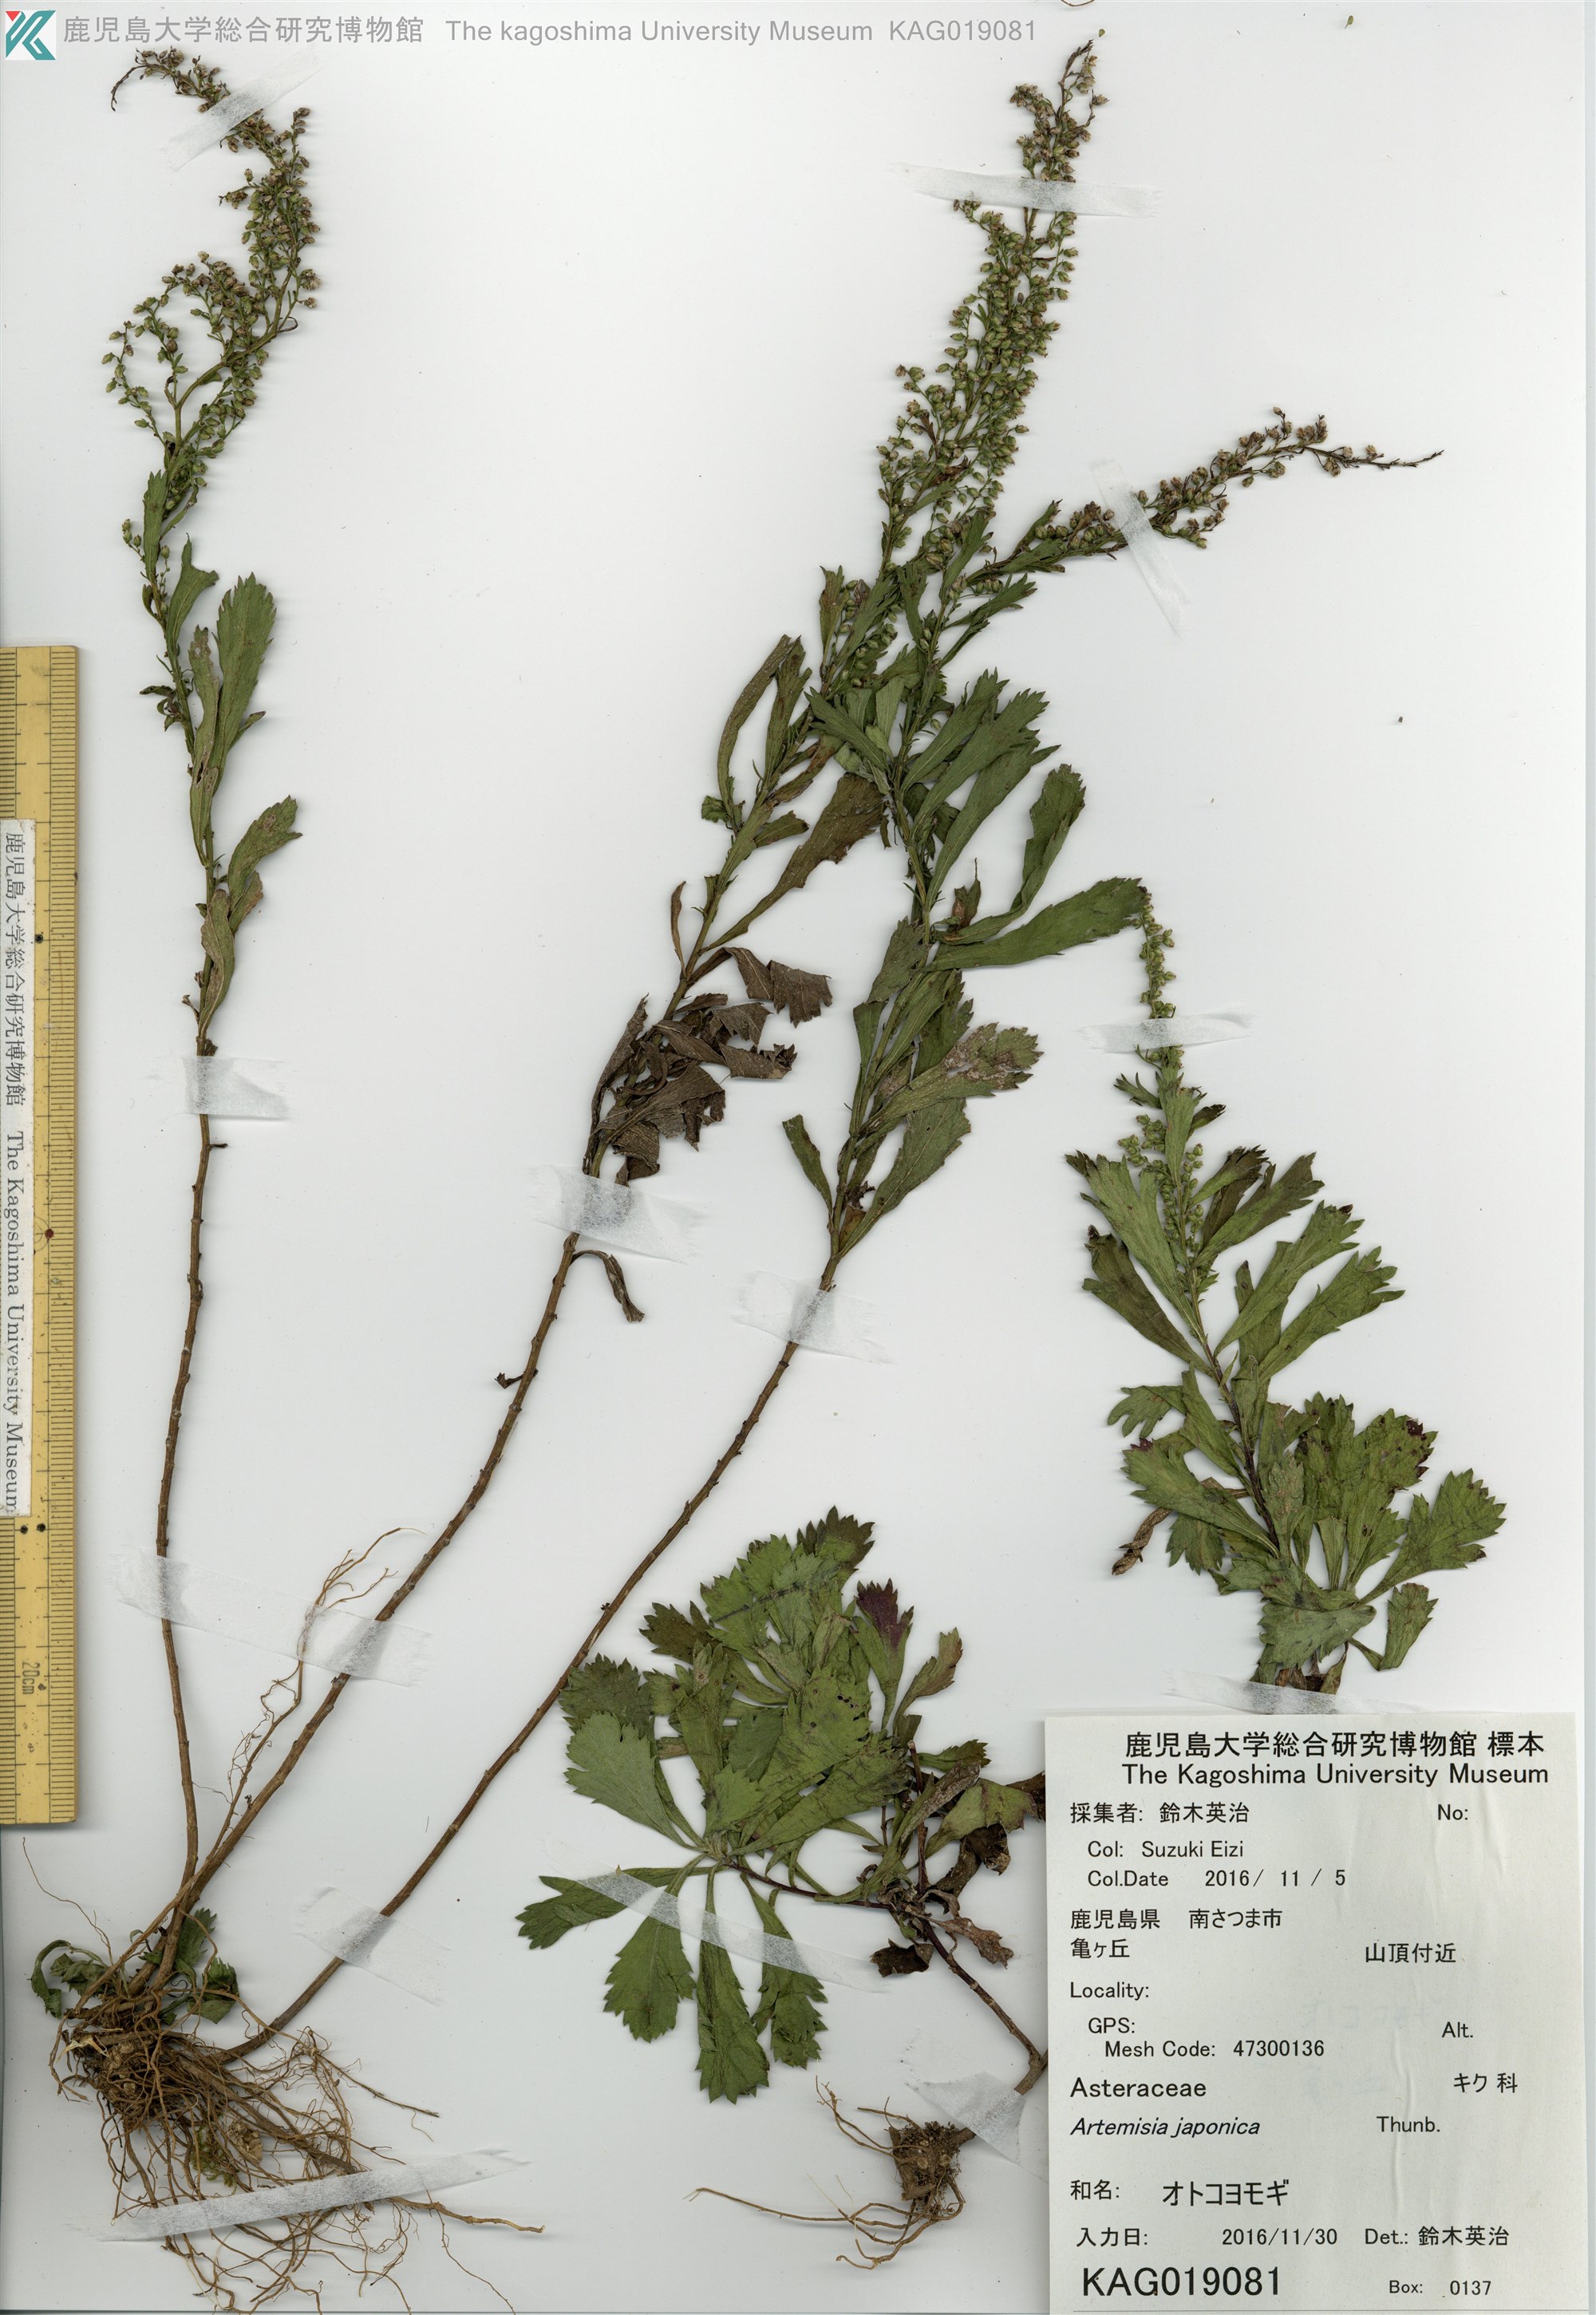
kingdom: Plantae
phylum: Tracheophyta
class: Magnoliopsida
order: Asterales
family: Asteraceae
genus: Artemisia
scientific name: Artemisia japonica
